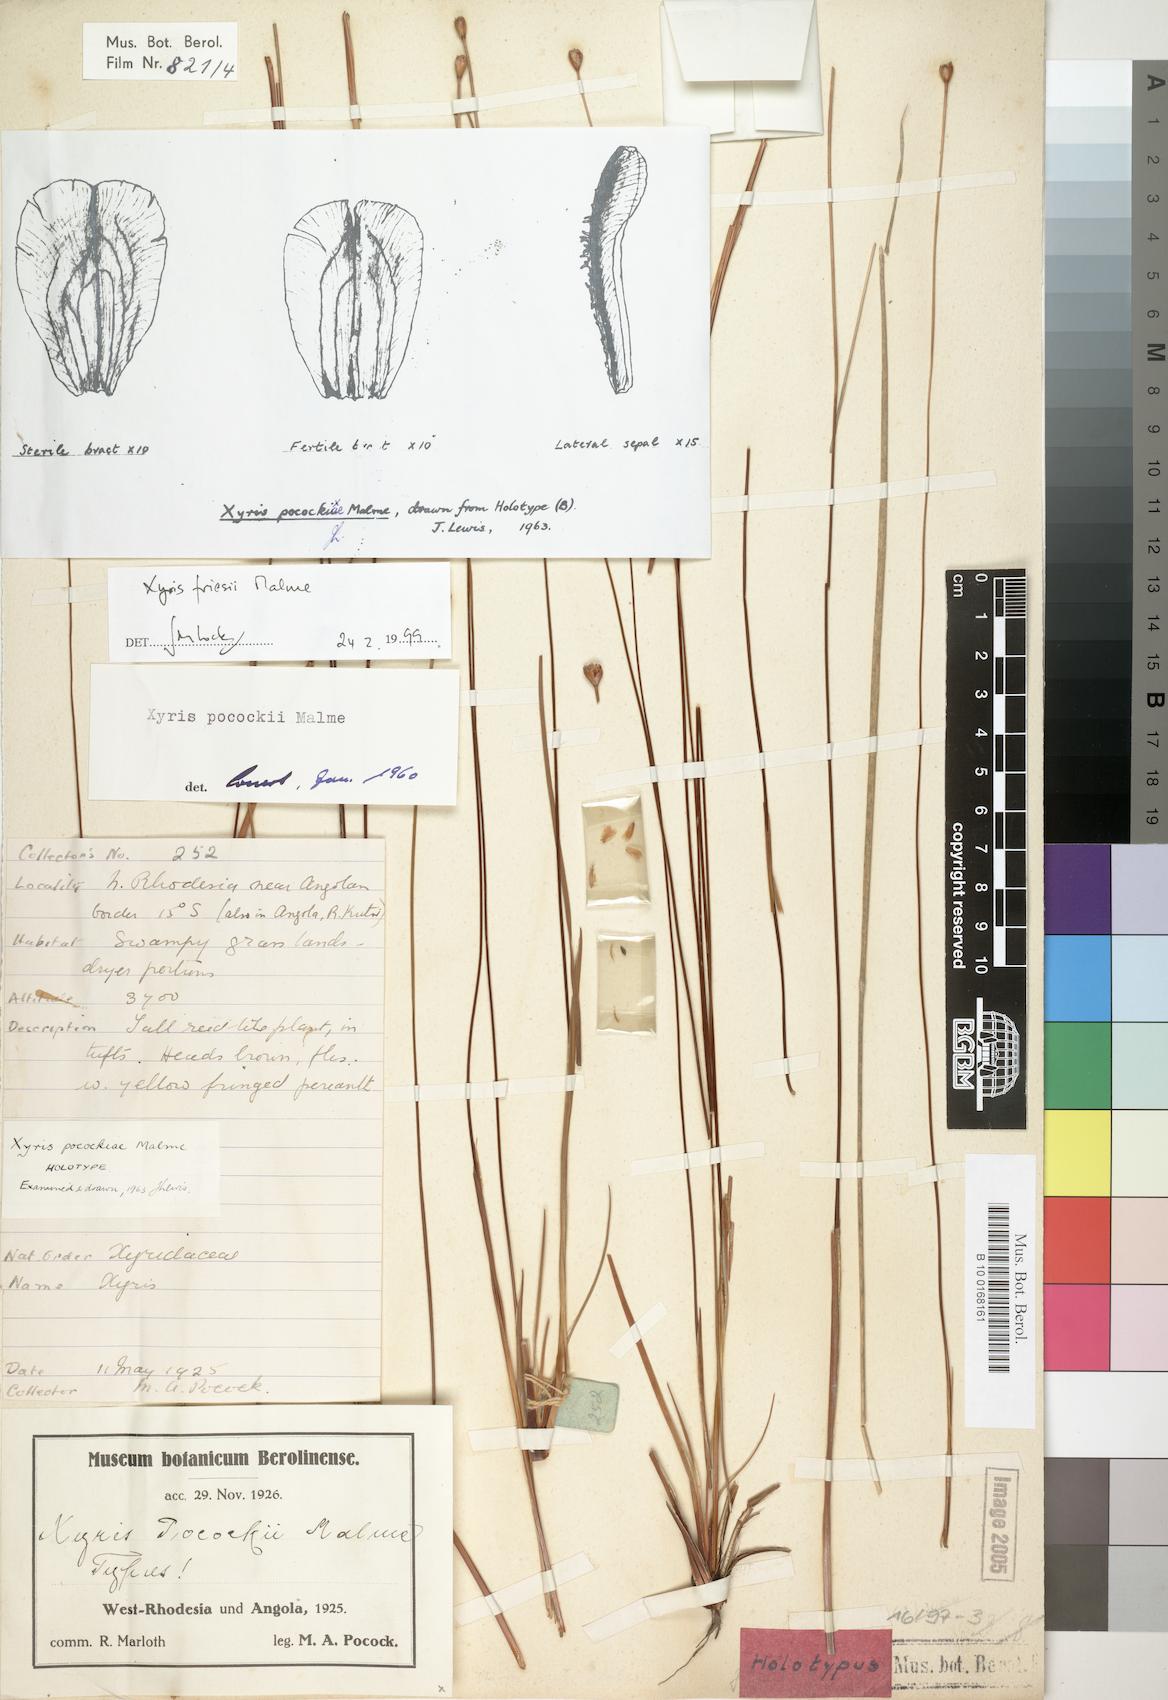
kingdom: Plantae
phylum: Tracheophyta
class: Liliopsida
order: Poales
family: Xyridaceae
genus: Xyris
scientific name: Xyris friesii
